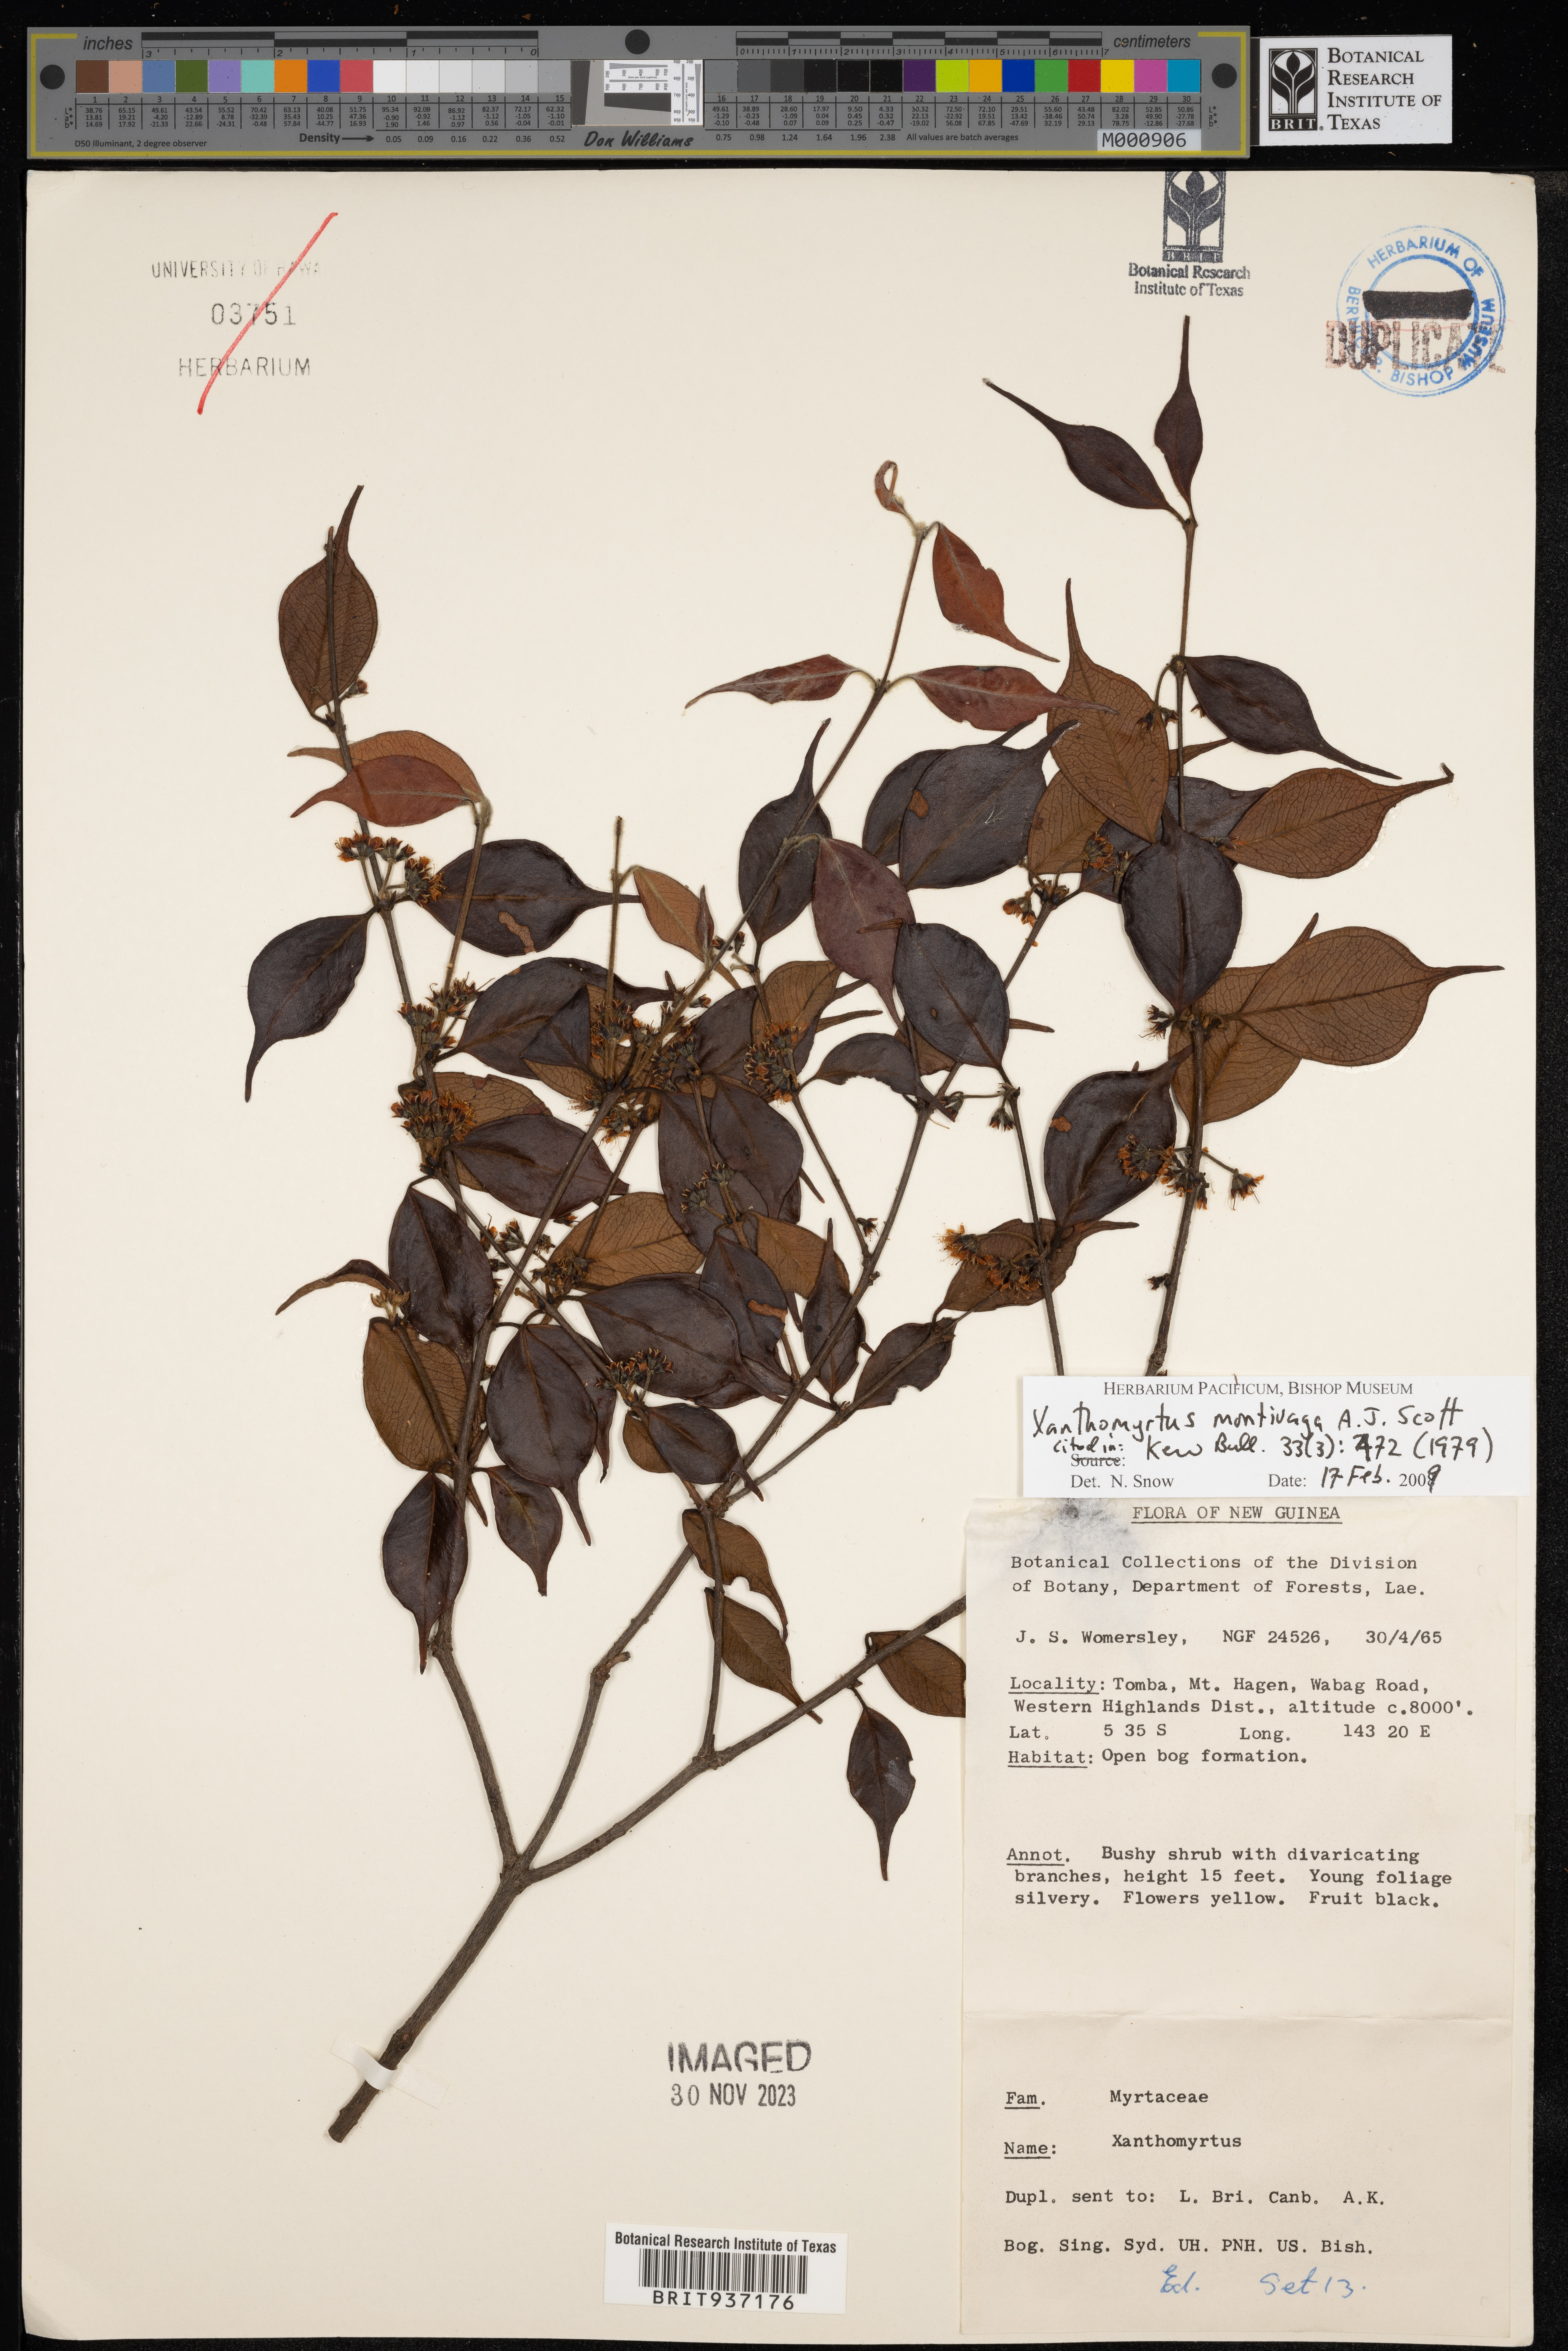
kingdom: Plantae
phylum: Tracheophyta
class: Magnoliopsida
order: Myrtales
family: Myrtaceae
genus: Xanthomyrtus
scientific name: Xanthomyrtus
